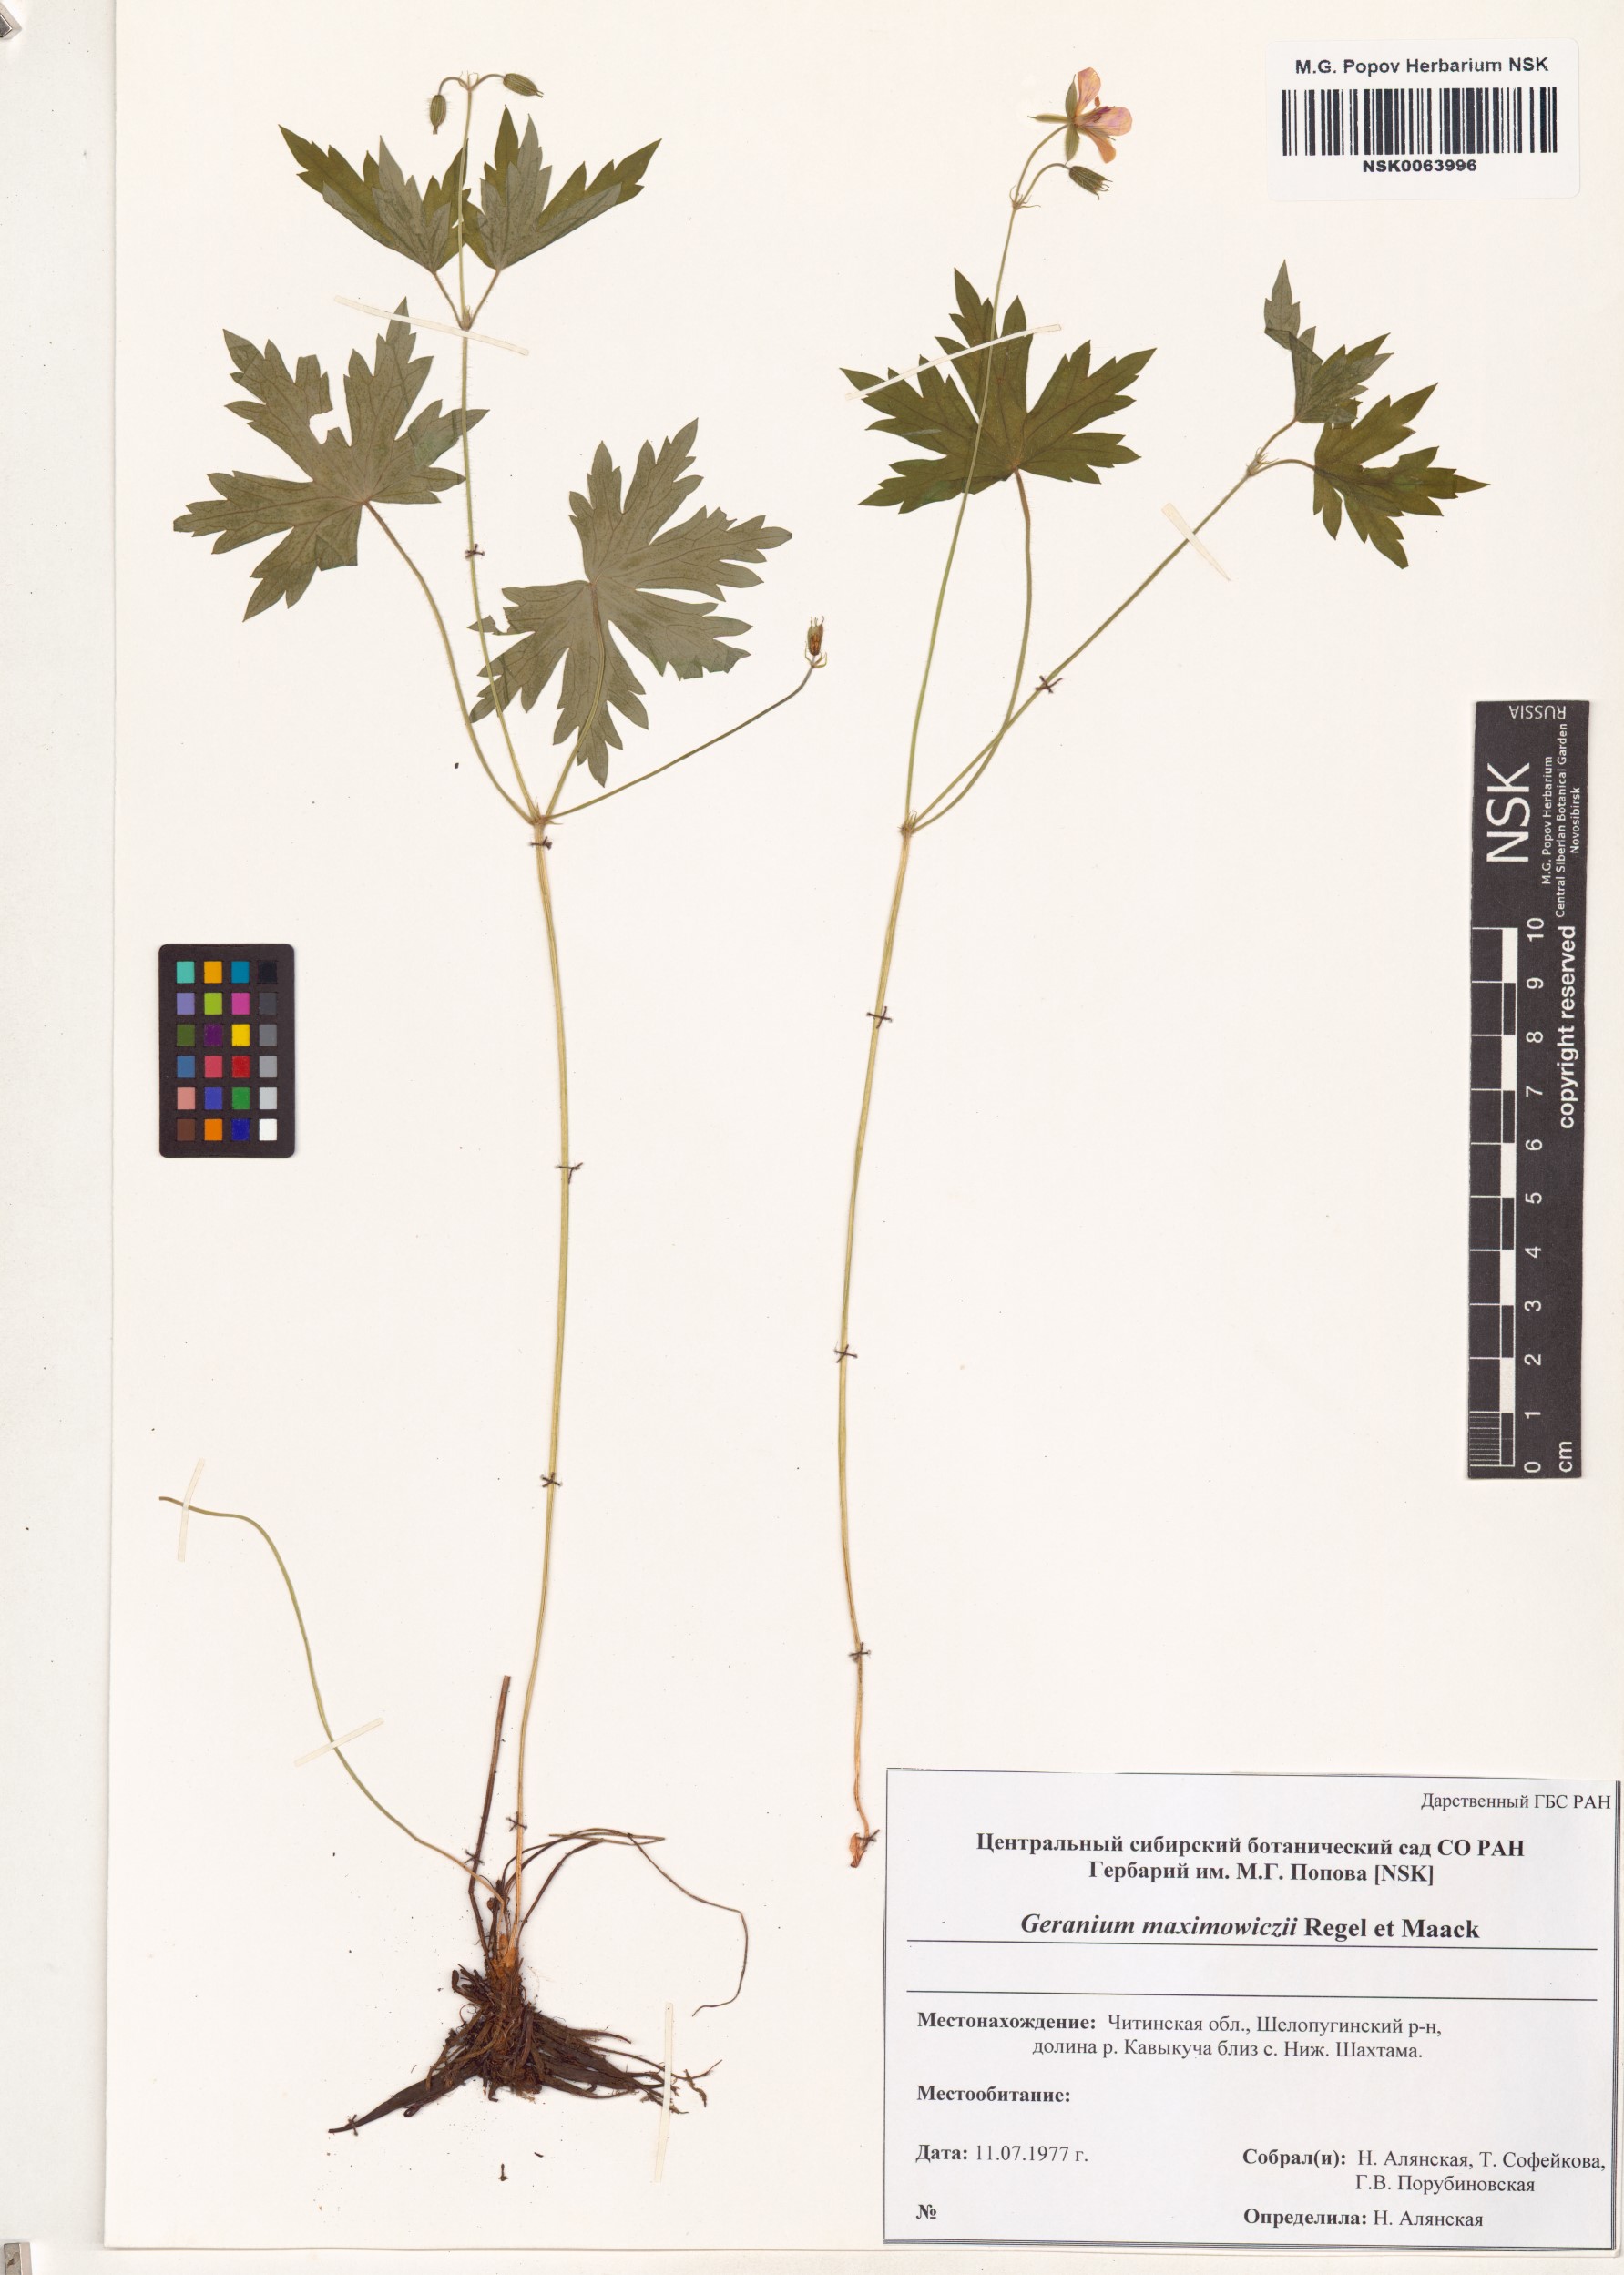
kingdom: Plantae
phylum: Tracheophyta
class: Magnoliopsida
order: Geraniales
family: Geraniaceae
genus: Geranium
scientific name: Geranium maximowiczii
